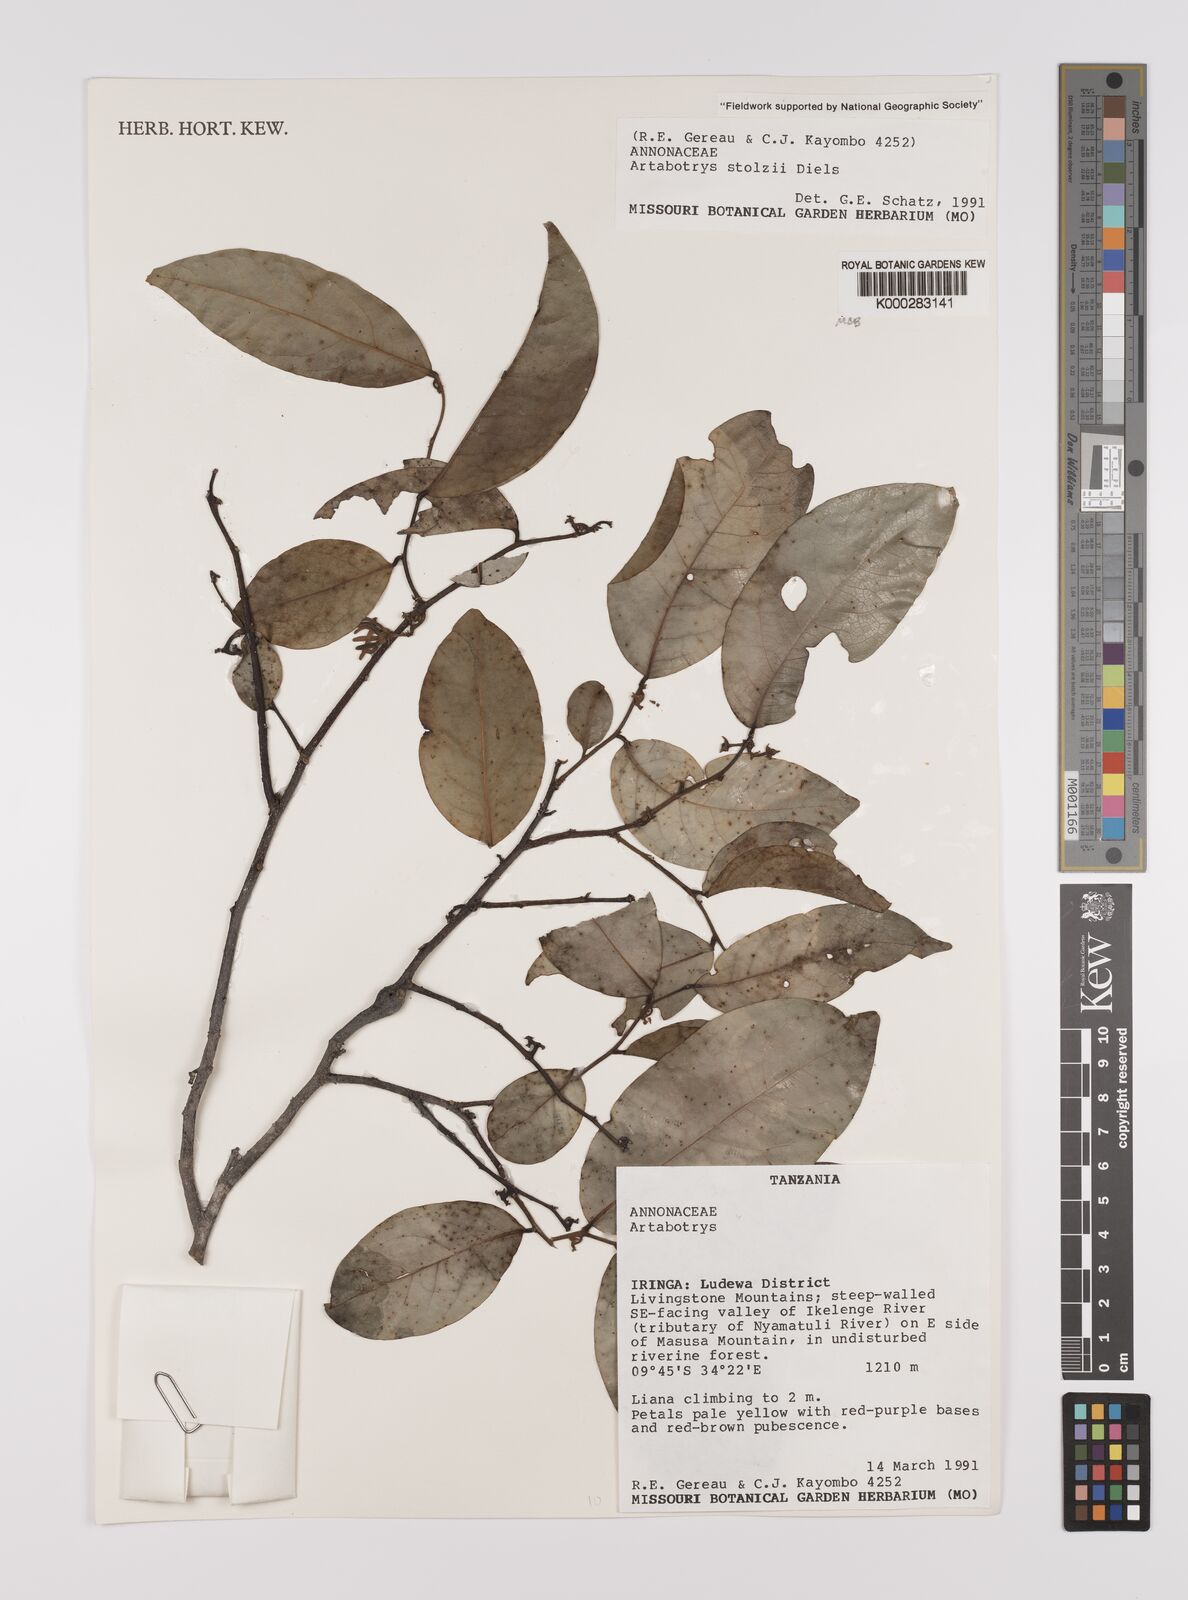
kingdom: Plantae
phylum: Tracheophyta
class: Magnoliopsida
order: Magnoliales
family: Annonaceae
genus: Artabotrys
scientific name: Artabotrys stolzii
